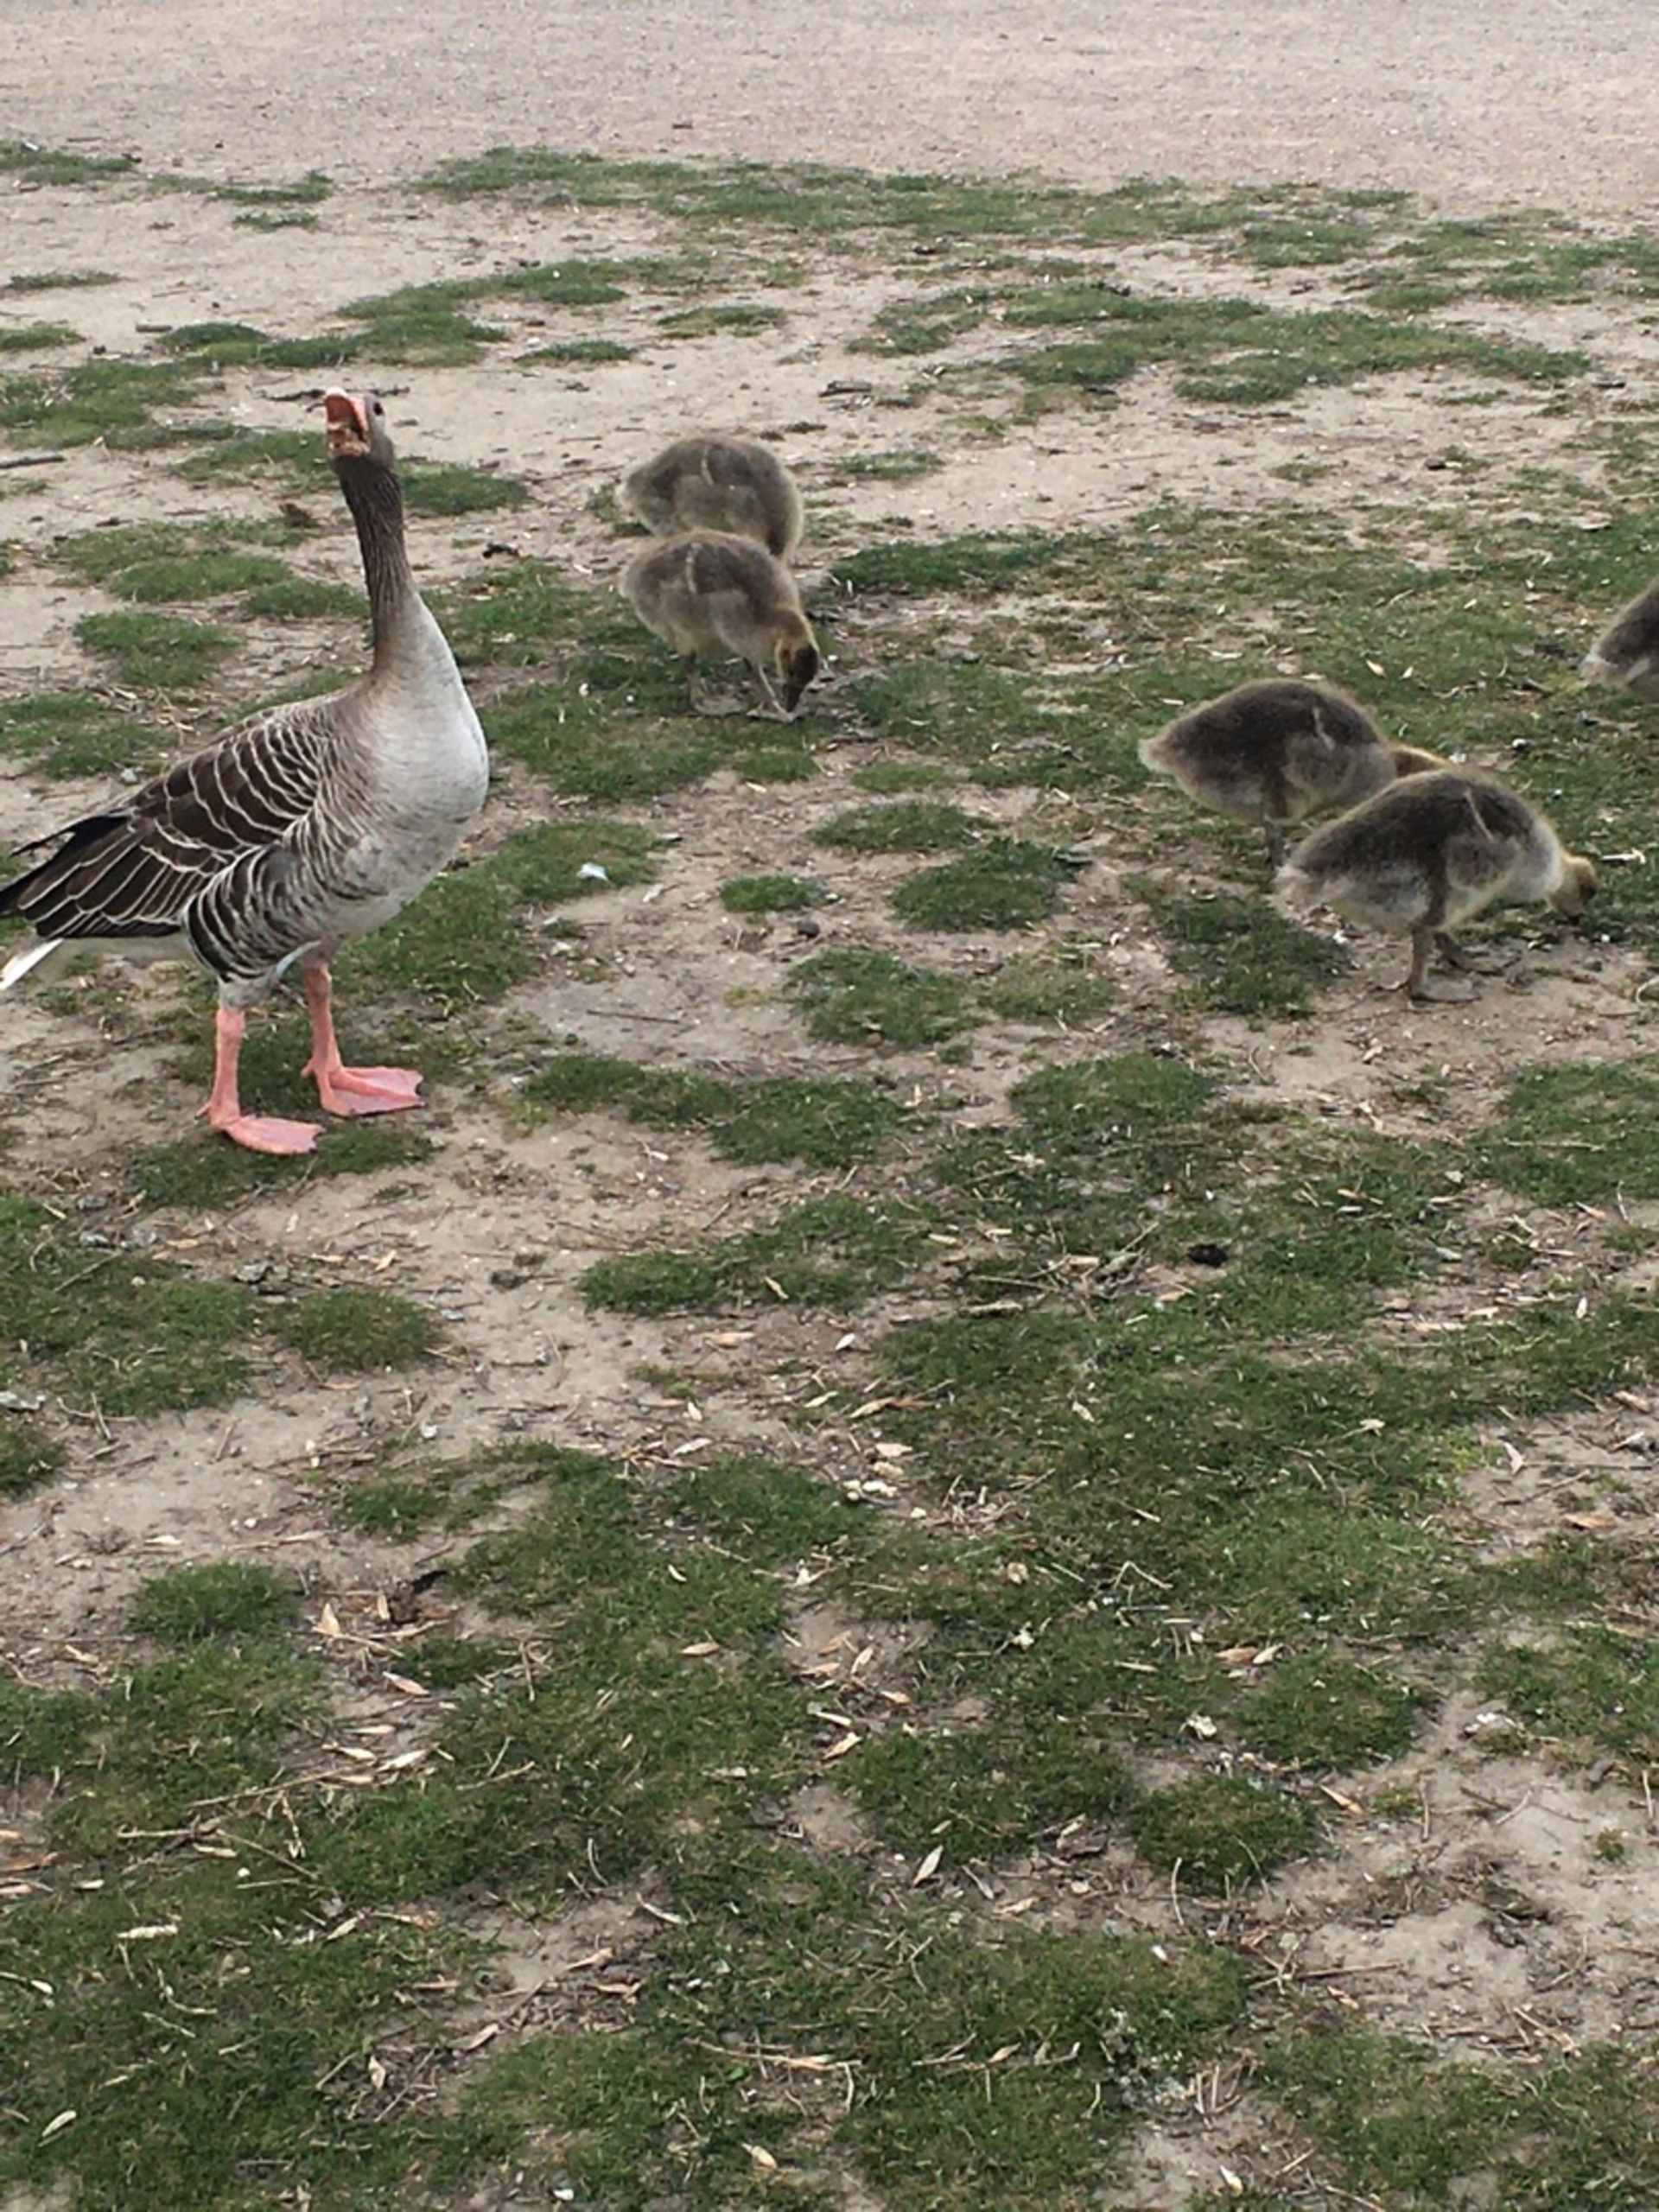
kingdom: Animalia
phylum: Chordata
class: Aves
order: Anseriformes
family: Anatidae
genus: Anser
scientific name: Anser anser
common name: Grågås
